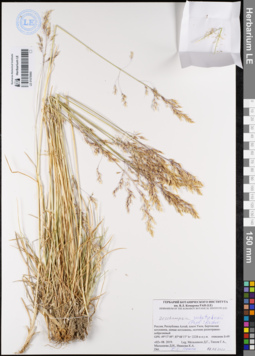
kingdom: Plantae
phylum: Tracheophyta
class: Liliopsida
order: Poales
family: Poaceae
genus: Deschampsia
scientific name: Deschampsia cespitosa
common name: Tufted hair-grass
